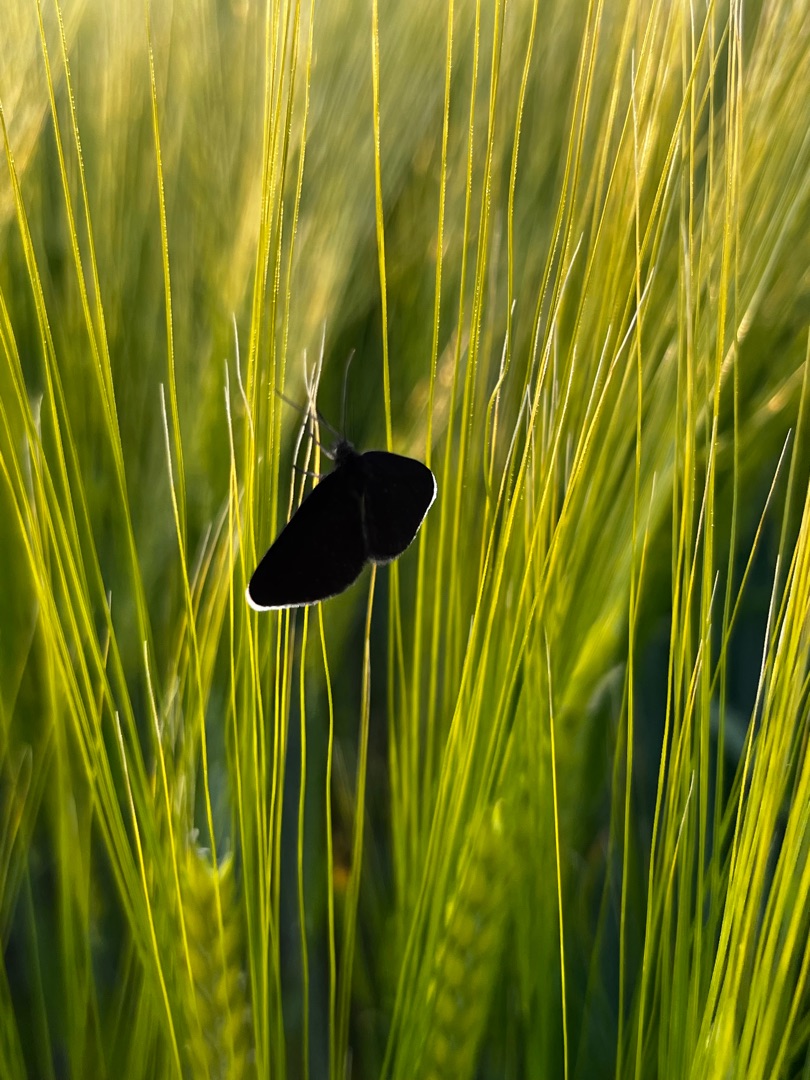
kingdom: Animalia
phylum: Arthropoda
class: Insecta
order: Lepidoptera
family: Geometridae
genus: Odezia
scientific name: Odezia atrata
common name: Sort måler
